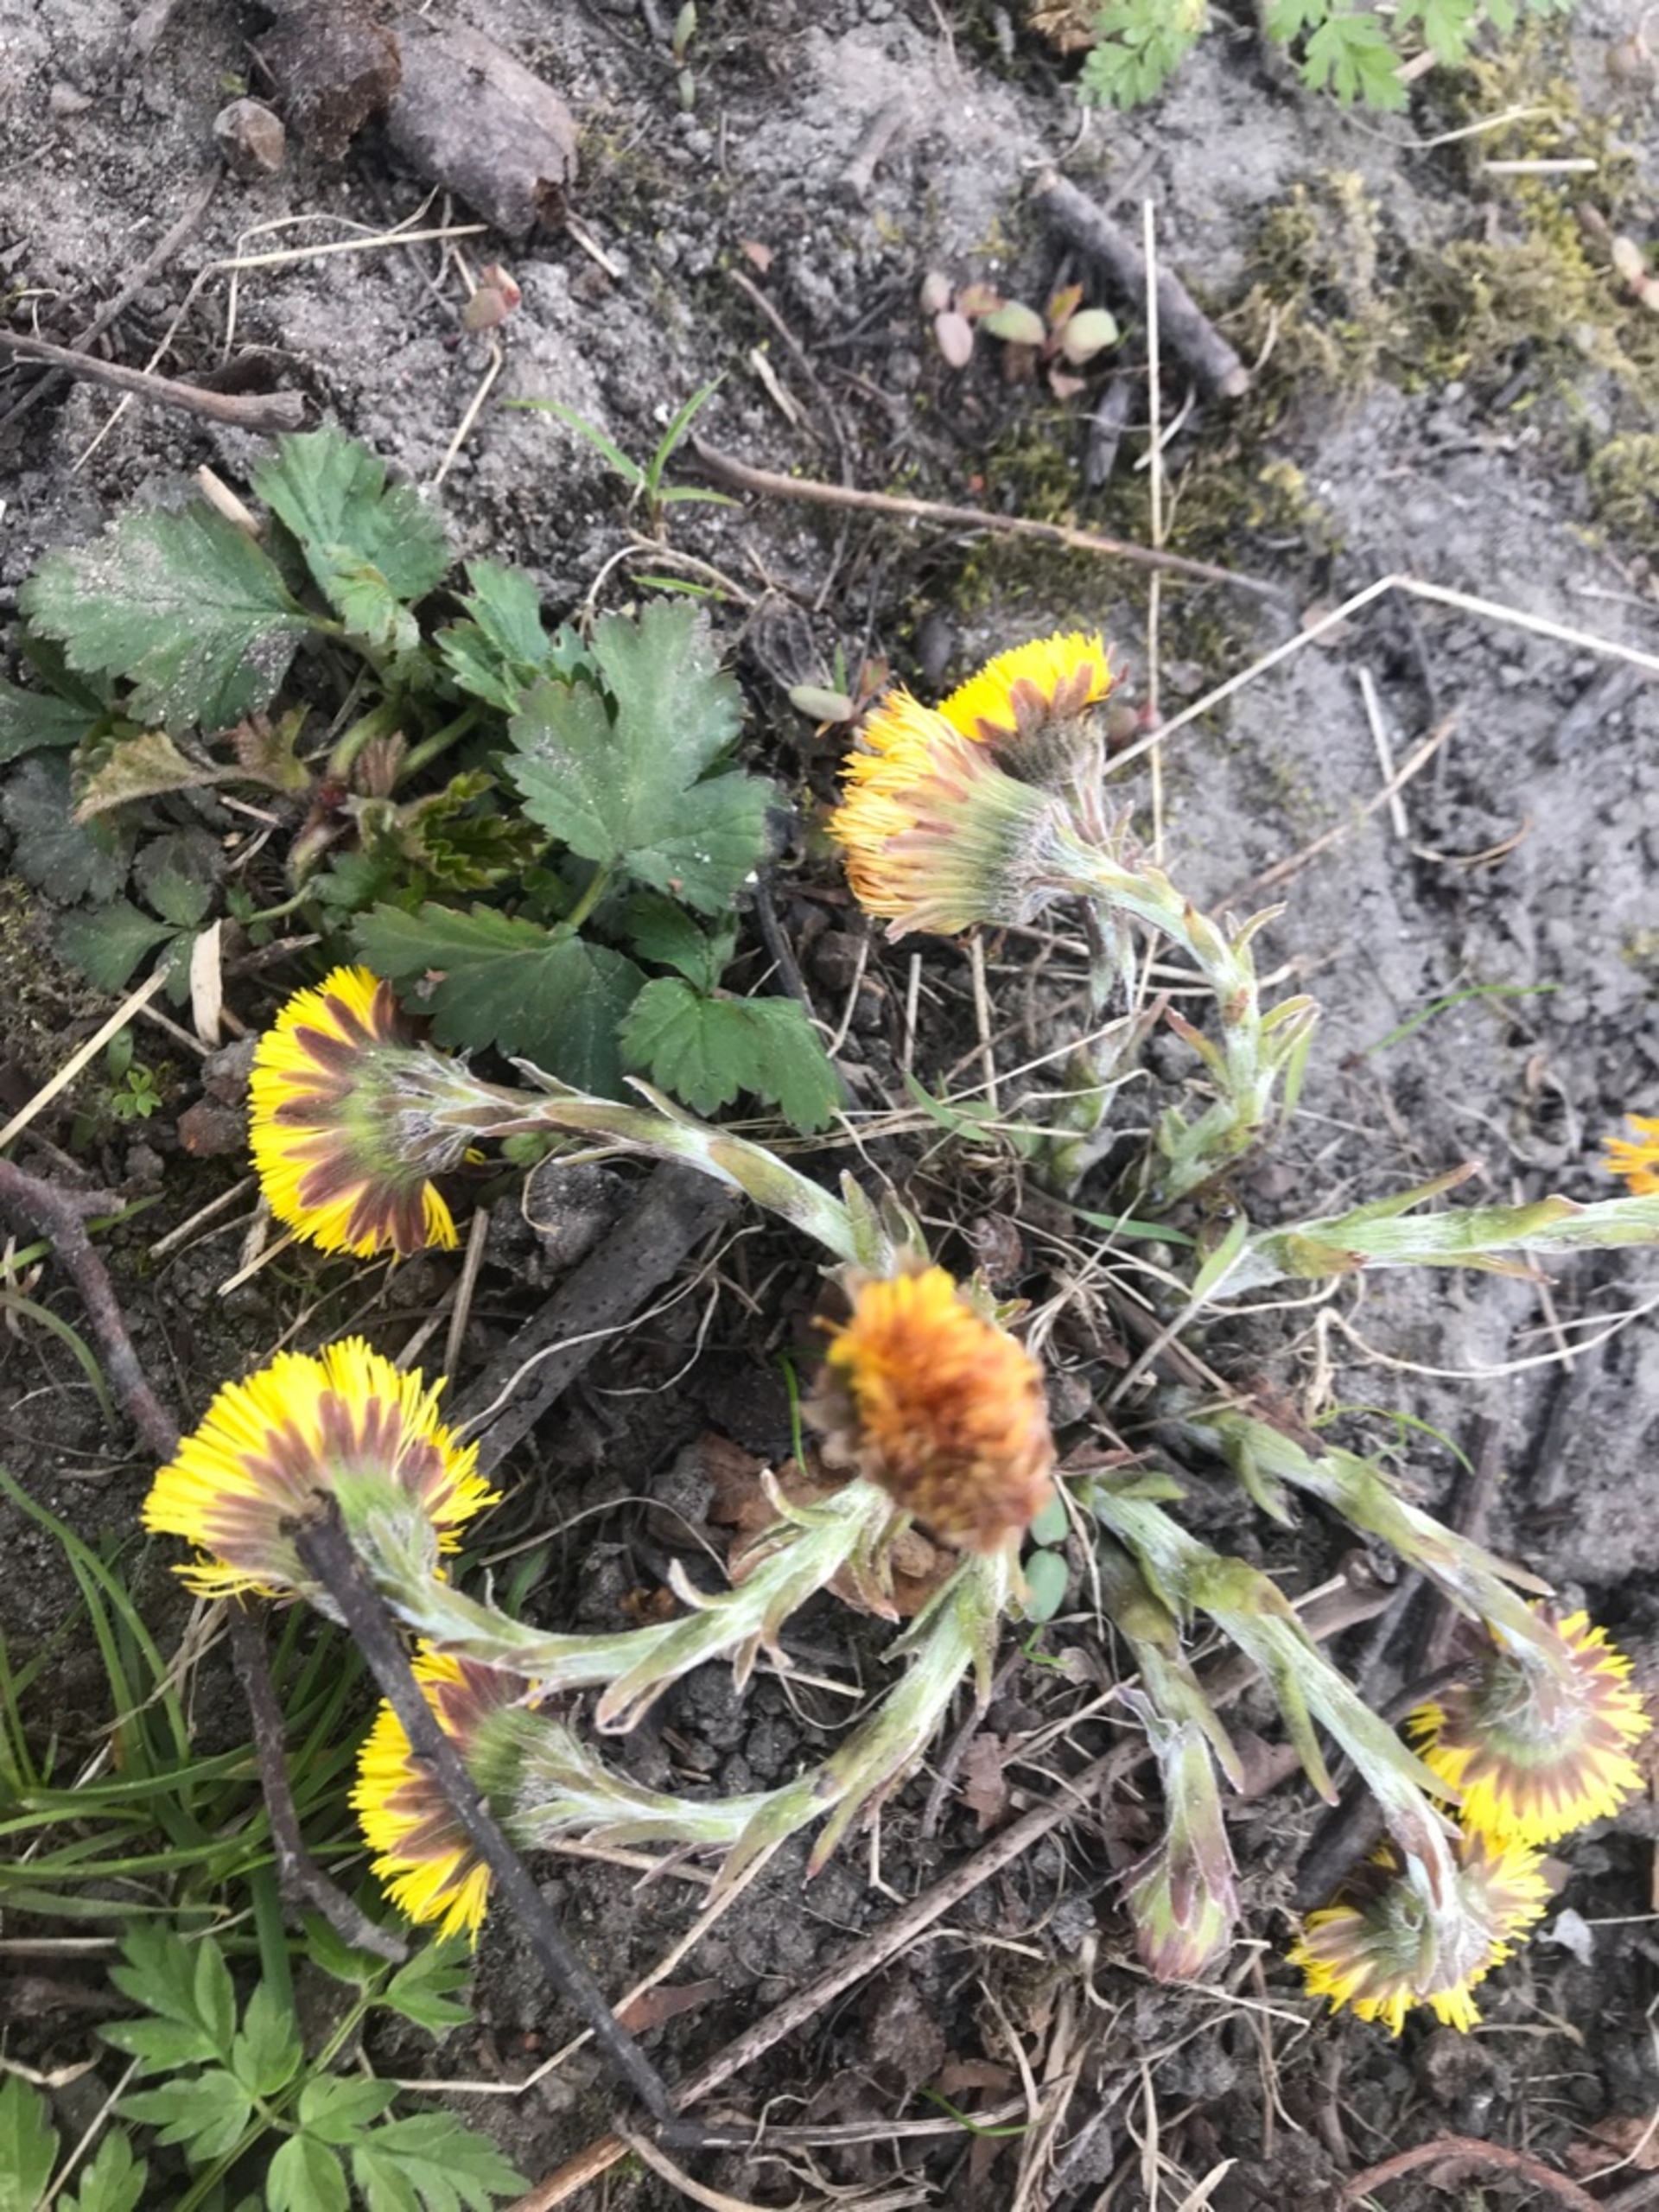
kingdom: Plantae
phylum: Tracheophyta
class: Magnoliopsida
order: Asterales
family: Asteraceae
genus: Tussilago
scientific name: Tussilago farfara
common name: Følfod
